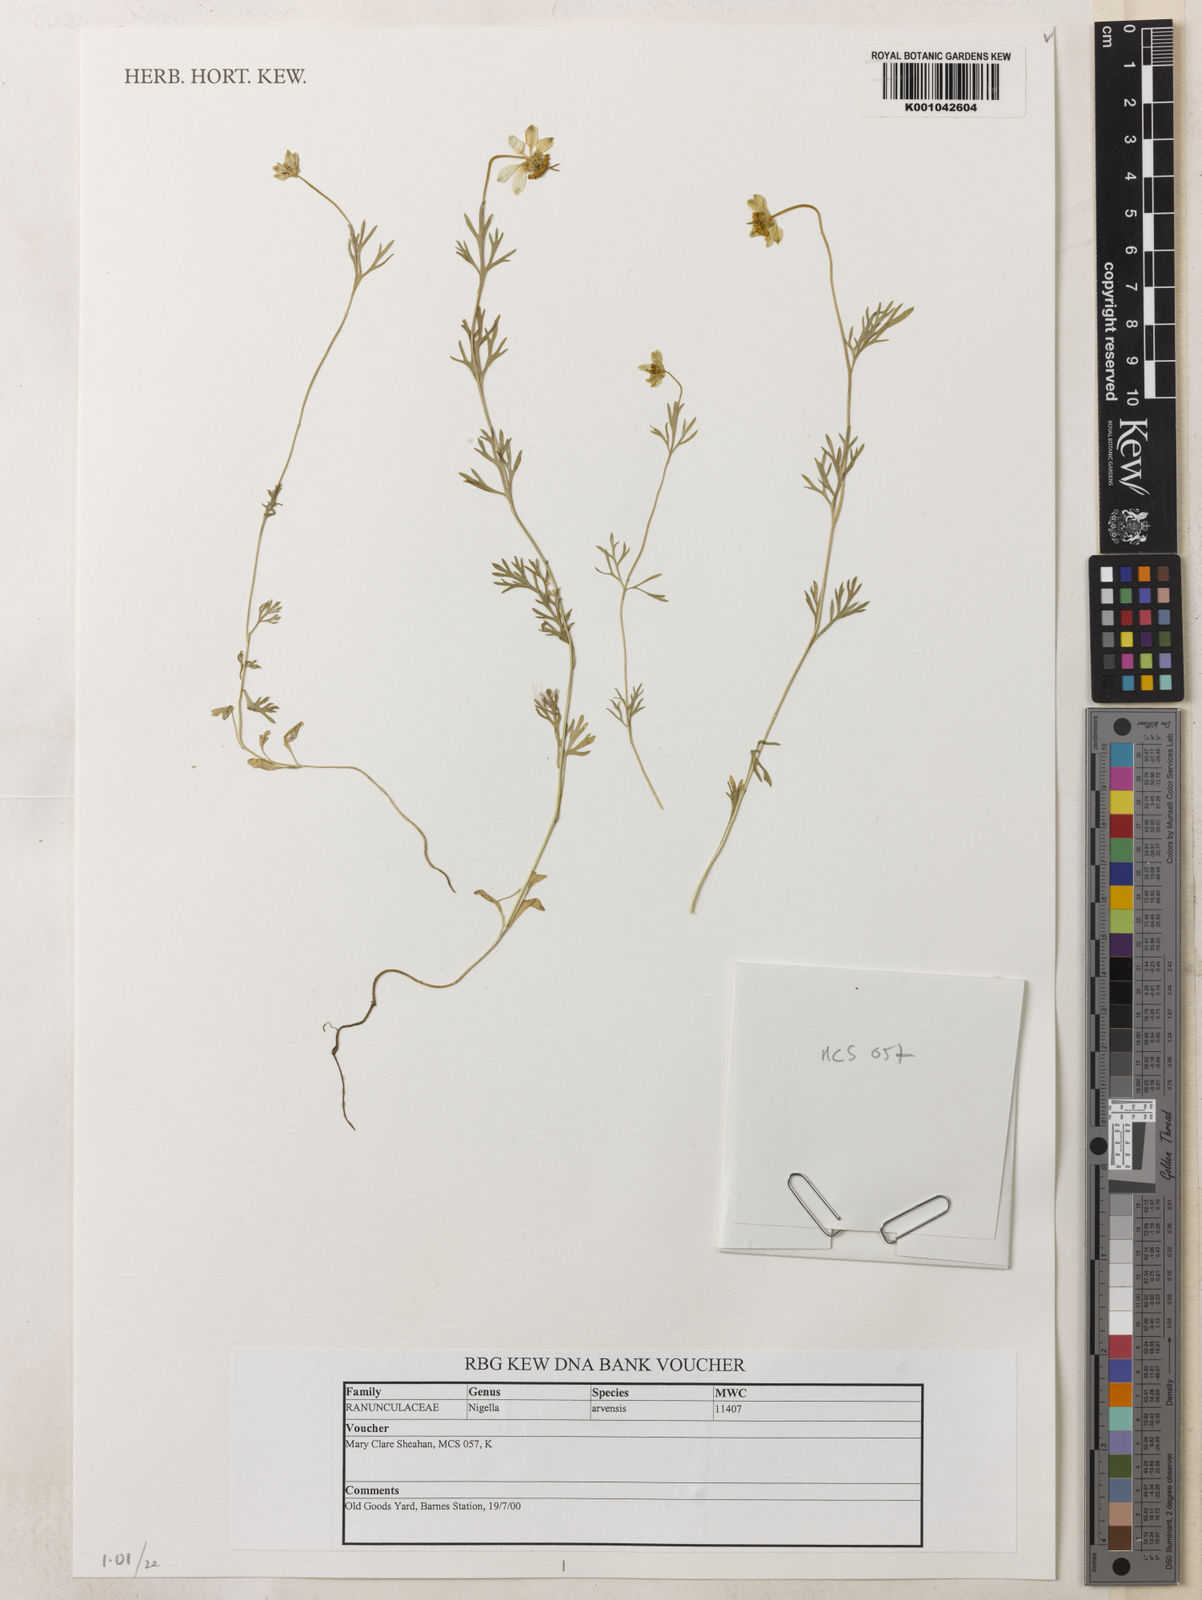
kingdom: Plantae
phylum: Tracheophyta
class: Magnoliopsida
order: Ranunculales
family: Ranunculaceae
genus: Nigella
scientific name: Nigella arvensis
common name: Wild fennel-flower
